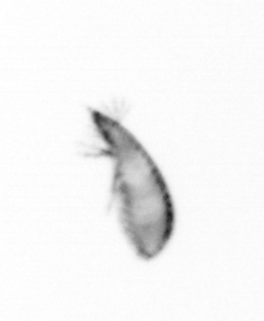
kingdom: Animalia
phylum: Arthropoda
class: Copepoda
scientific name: Copepoda
